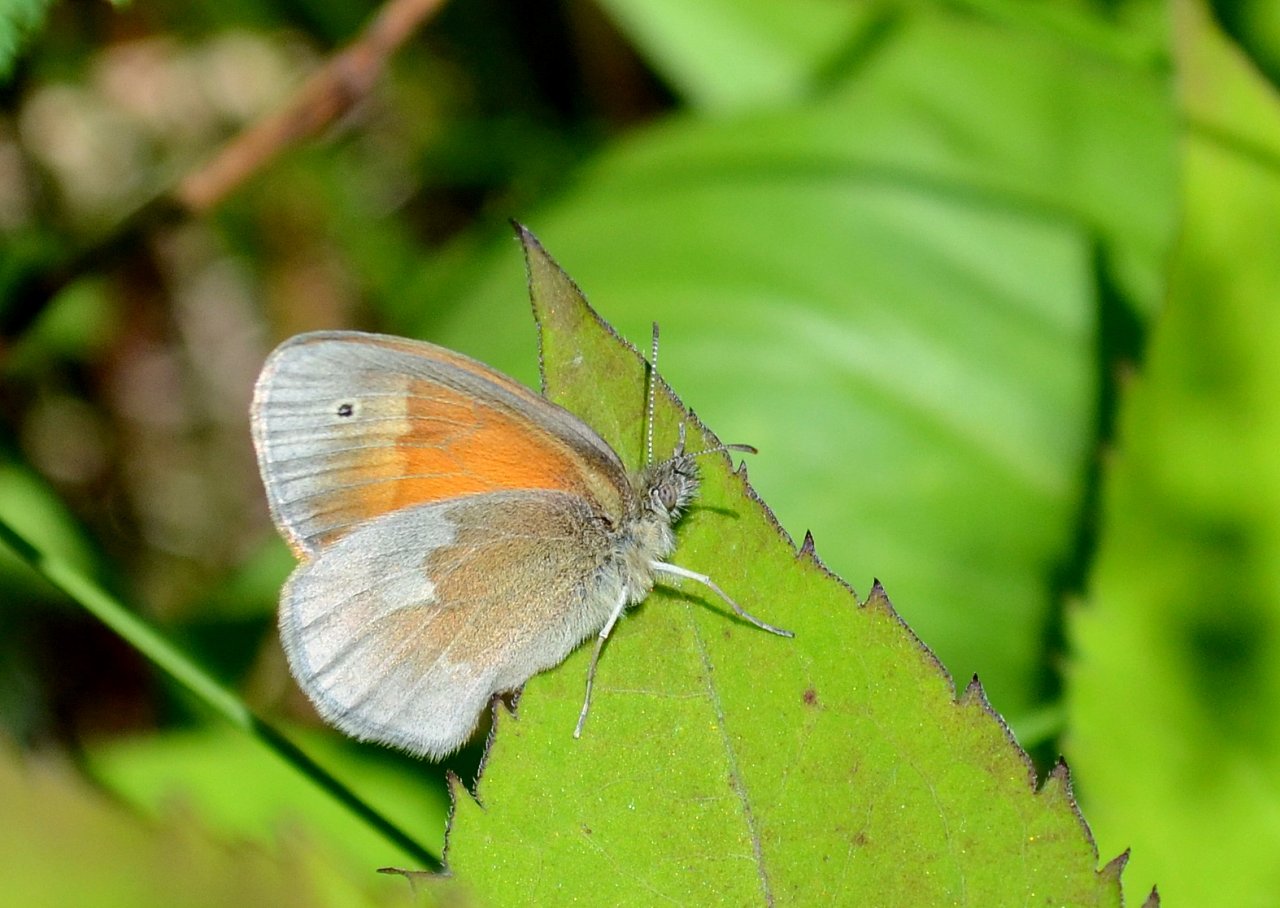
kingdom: Animalia
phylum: Arthropoda
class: Insecta
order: Lepidoptera
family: Nymphalidae
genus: Coenonympha
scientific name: Coenonympha tullia
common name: Large Heath
